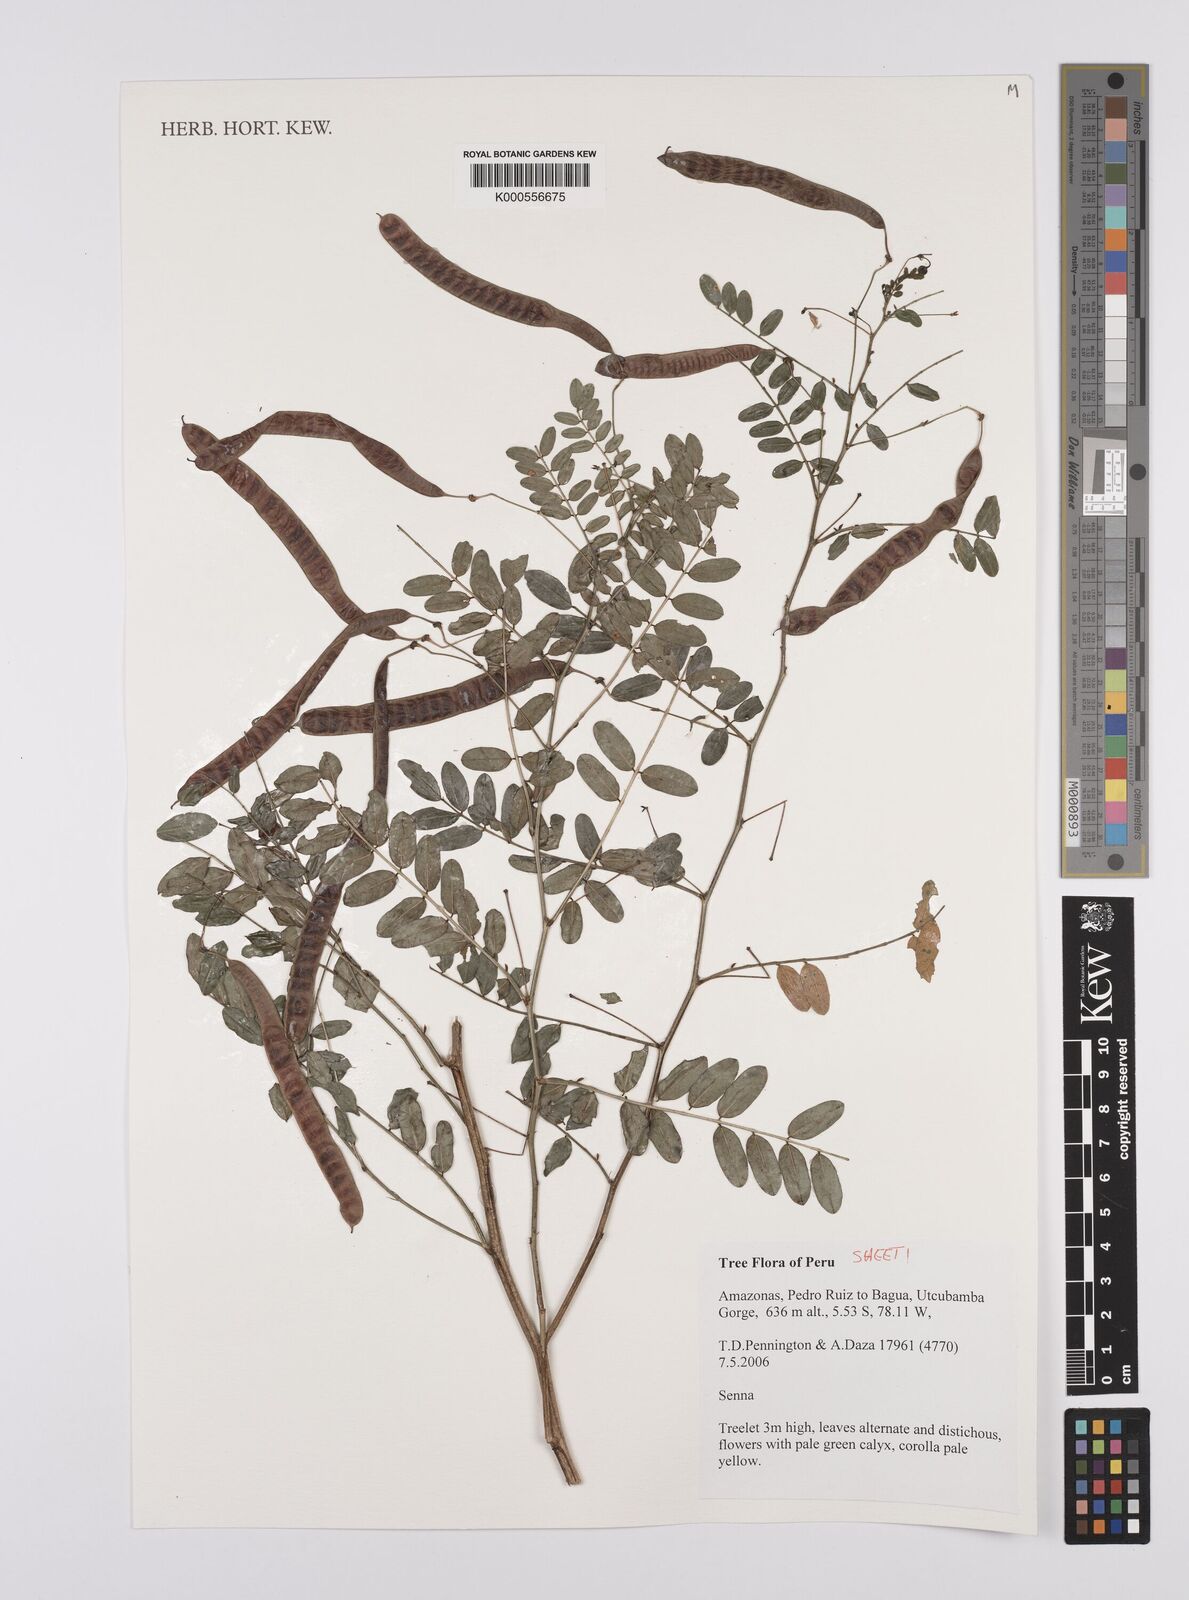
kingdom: Plantae
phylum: Tracheophyta
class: Magnoliopsida
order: Fabales
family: Fabaceae
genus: Senna
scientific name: Senna
